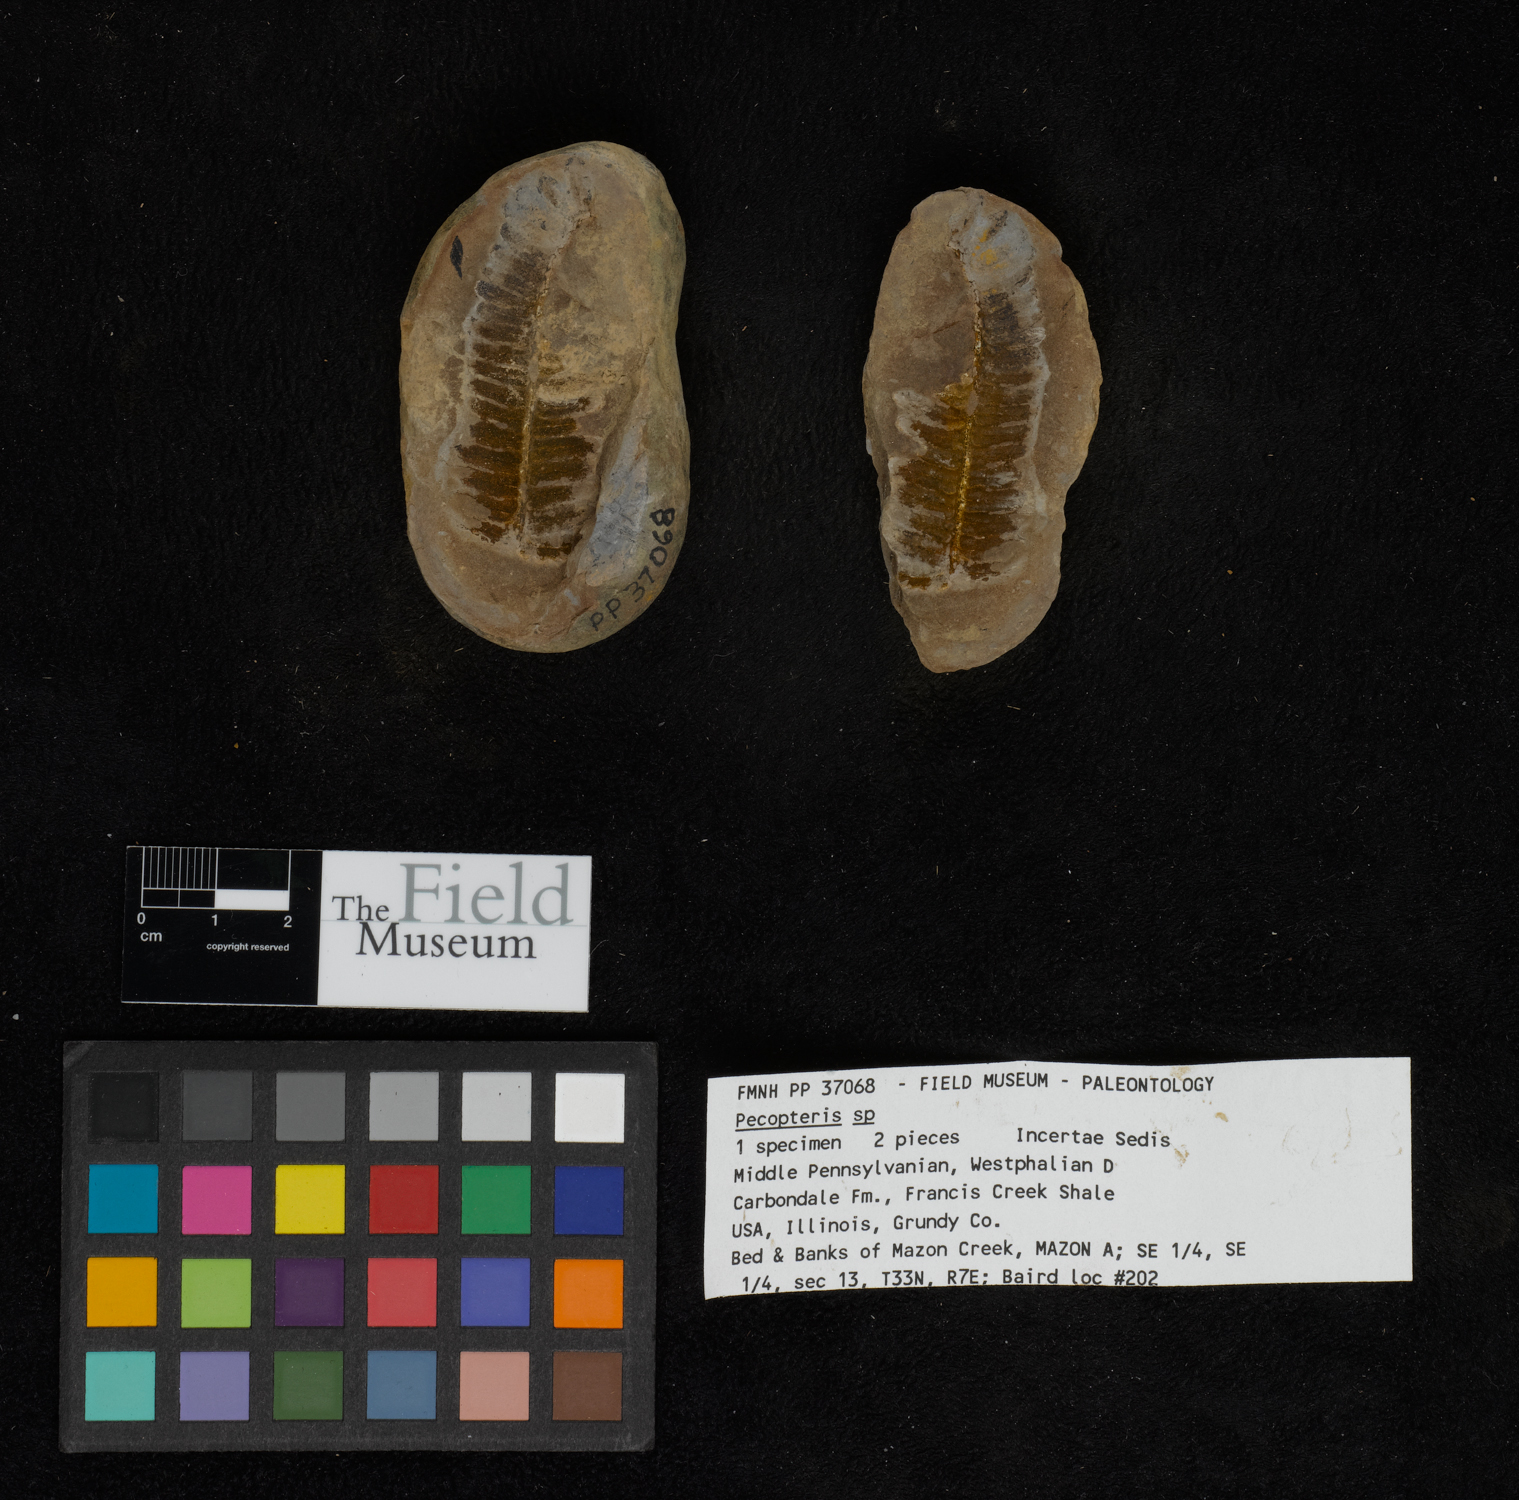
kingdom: Plantae
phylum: Tracheophyta
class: Polypodiopsida
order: Marattiales
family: Asterothecaceae
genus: Pecopteris
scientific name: Pecopteris
